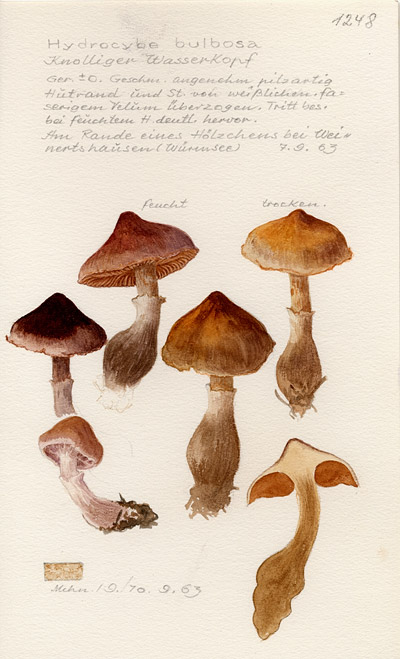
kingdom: Fungi
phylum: Basidiomycota
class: Agaricomycetes
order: Agaricales
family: Cortinariaceae
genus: Cortinarius
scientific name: Cortinarius bulbosus
